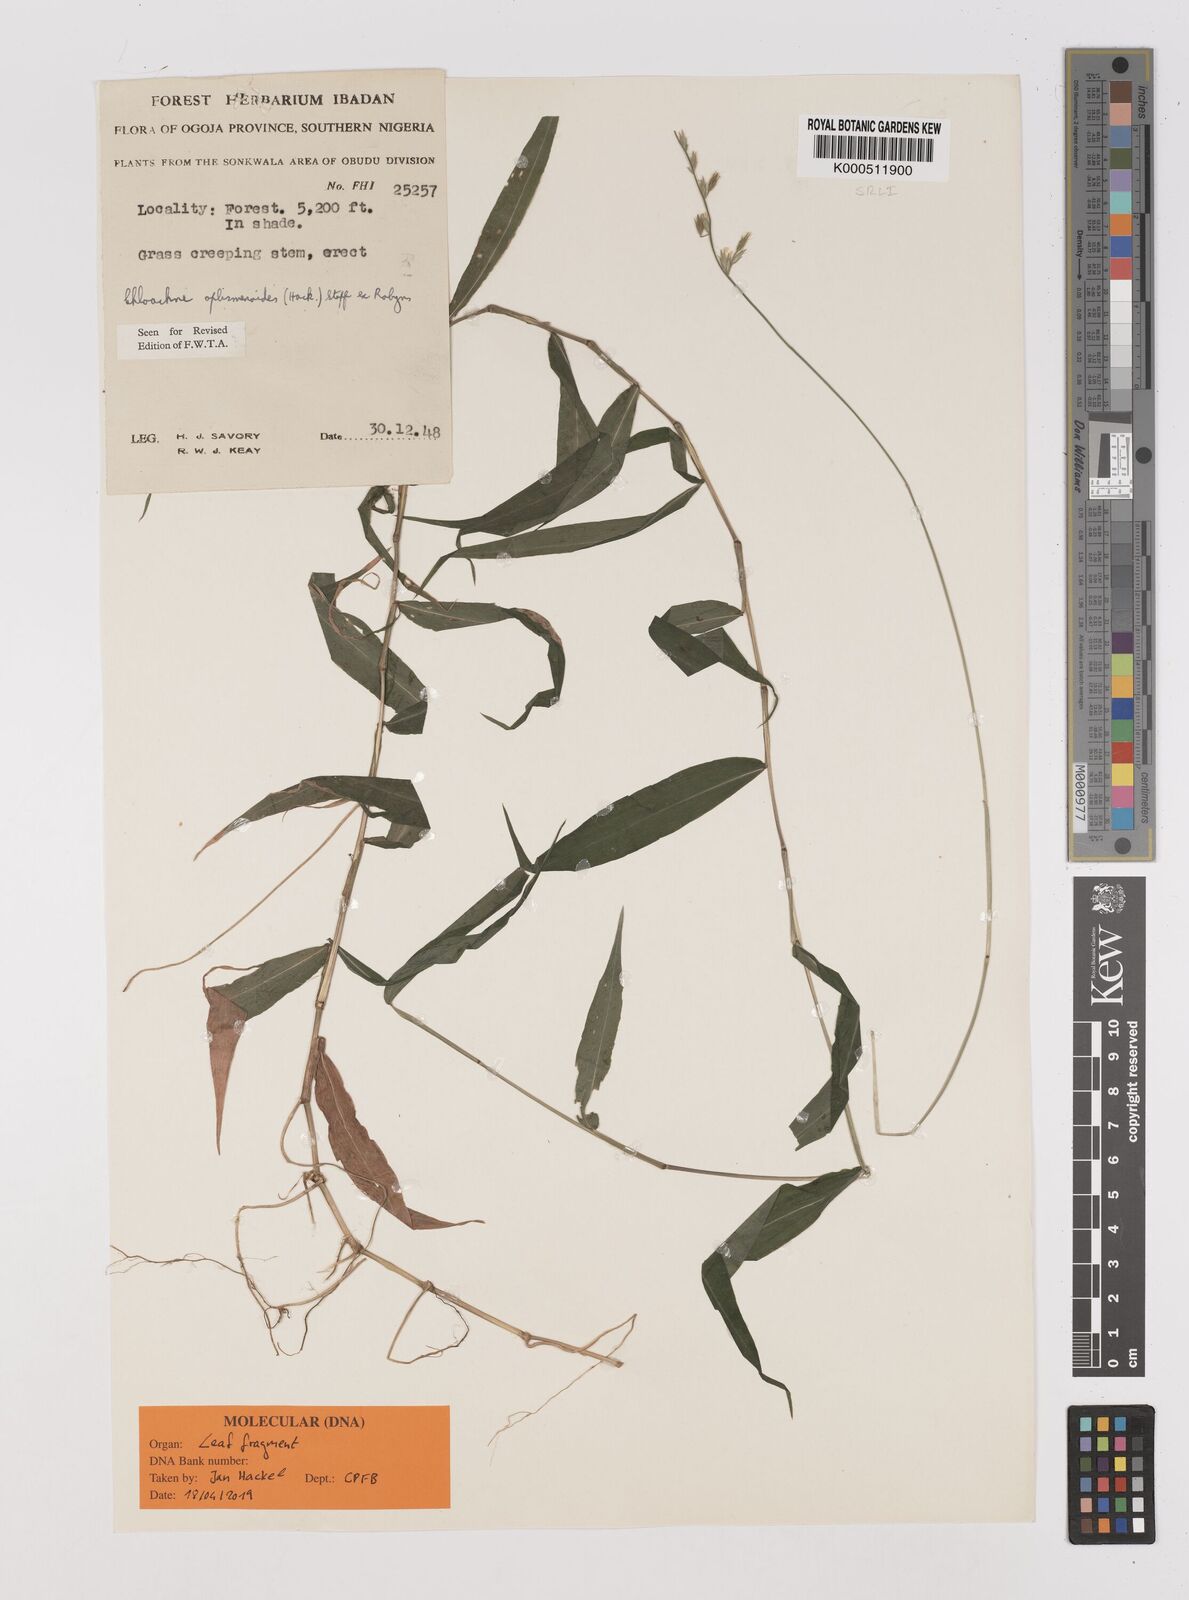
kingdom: Plantae
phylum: Tracheophyta
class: Liliopsida
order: Poales
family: Poaceae
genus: Poecilostachys
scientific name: Poecilostachys oplismenoides
